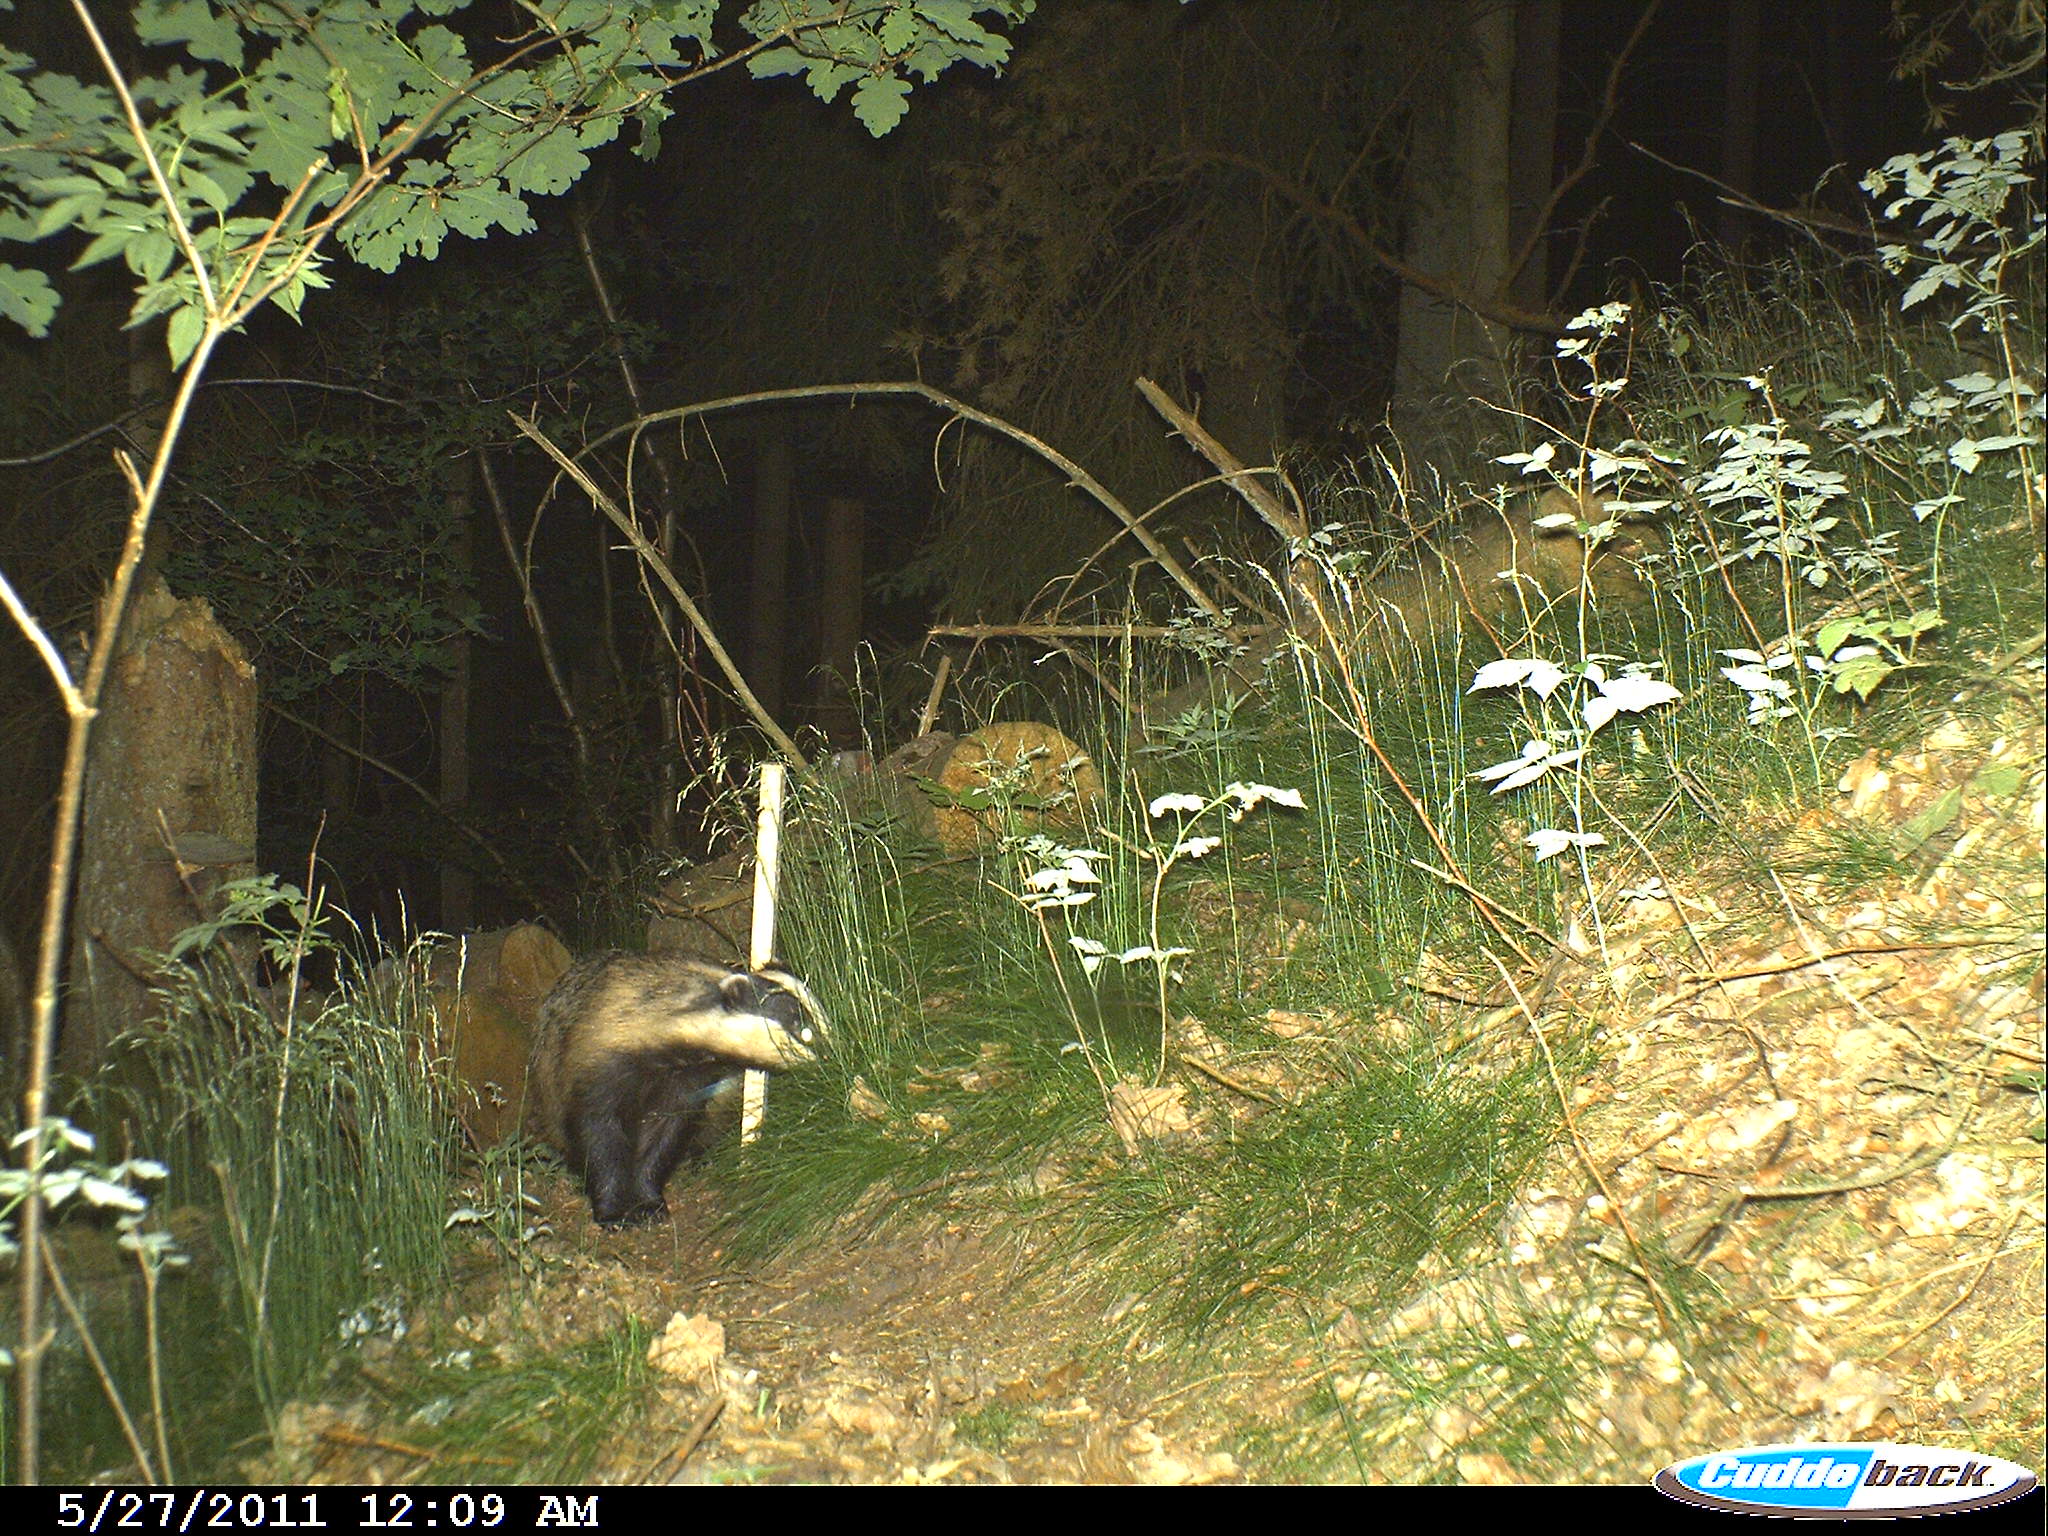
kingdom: Animalia
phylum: Chordata
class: Mammalia
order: Carnivora
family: Mustelidae
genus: Meles
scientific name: Meles meles
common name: Eurasian badger
